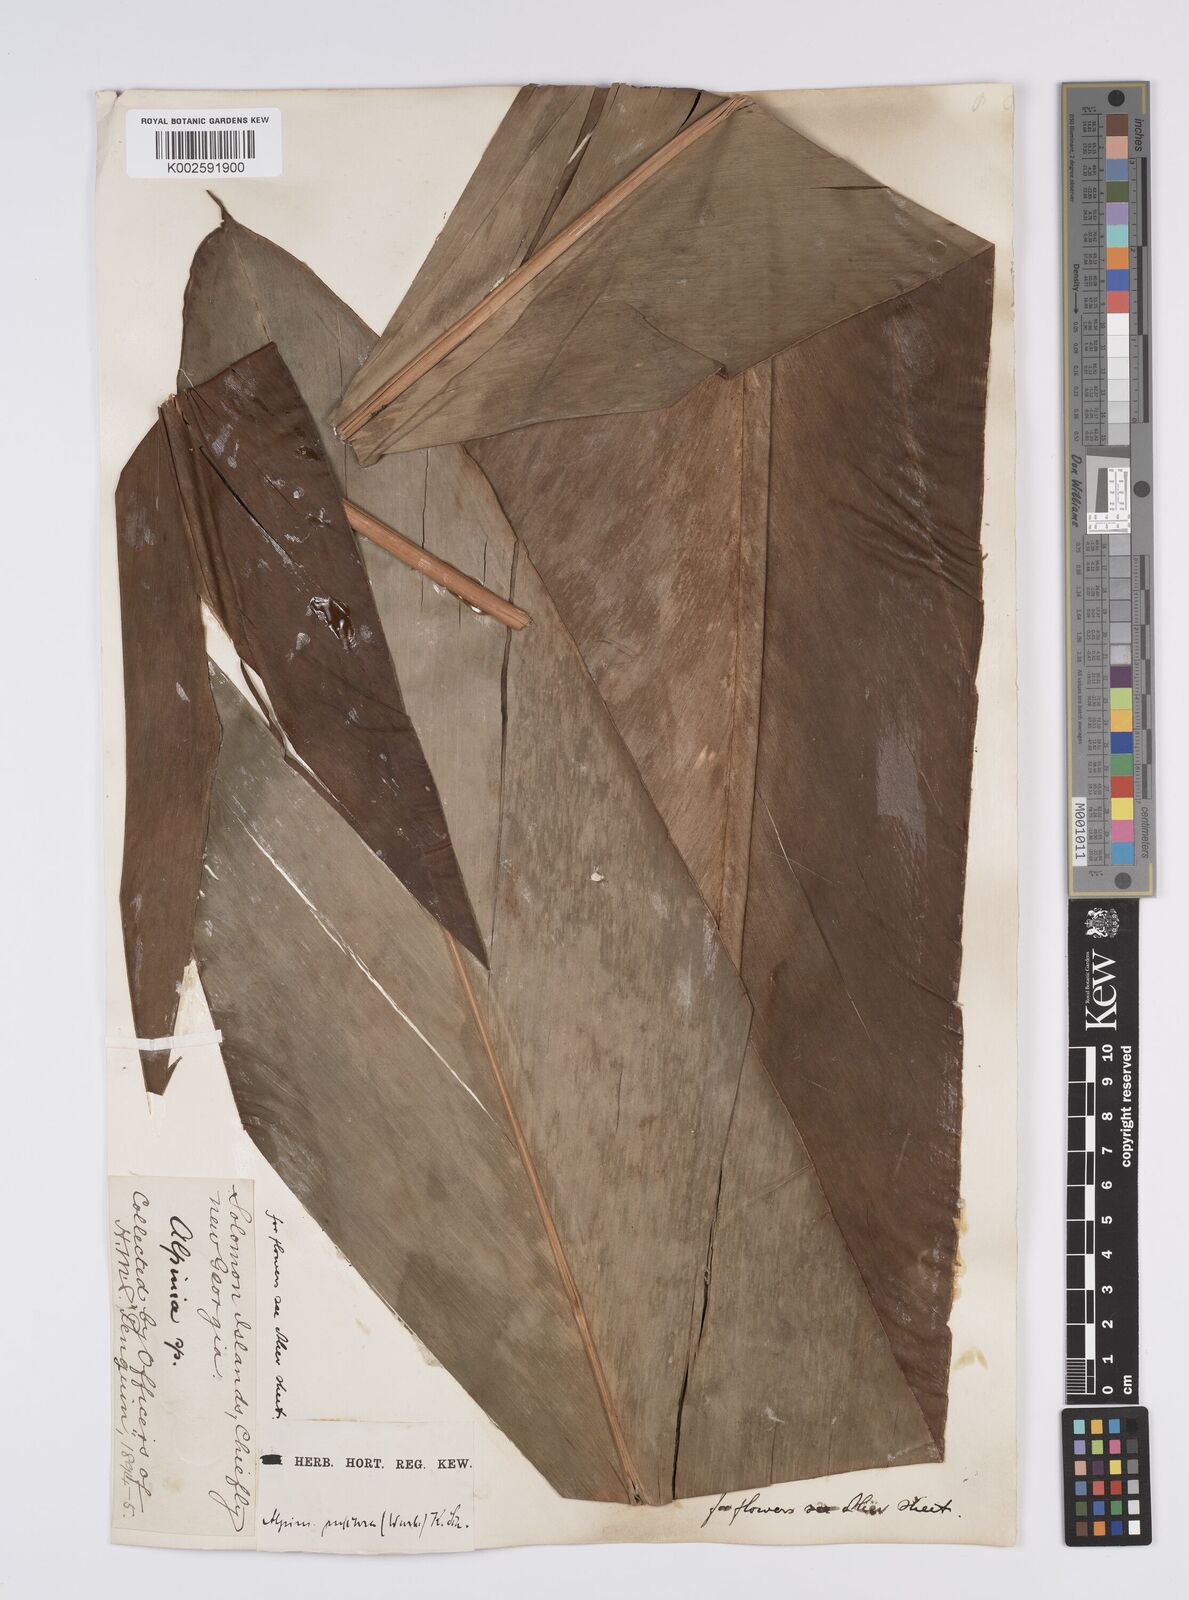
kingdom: Plantae
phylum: Tracheophyta
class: Liliopsida
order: Zingiberales
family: Zingiberaceae
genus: Alpinia
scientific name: Alpinia pulchra
